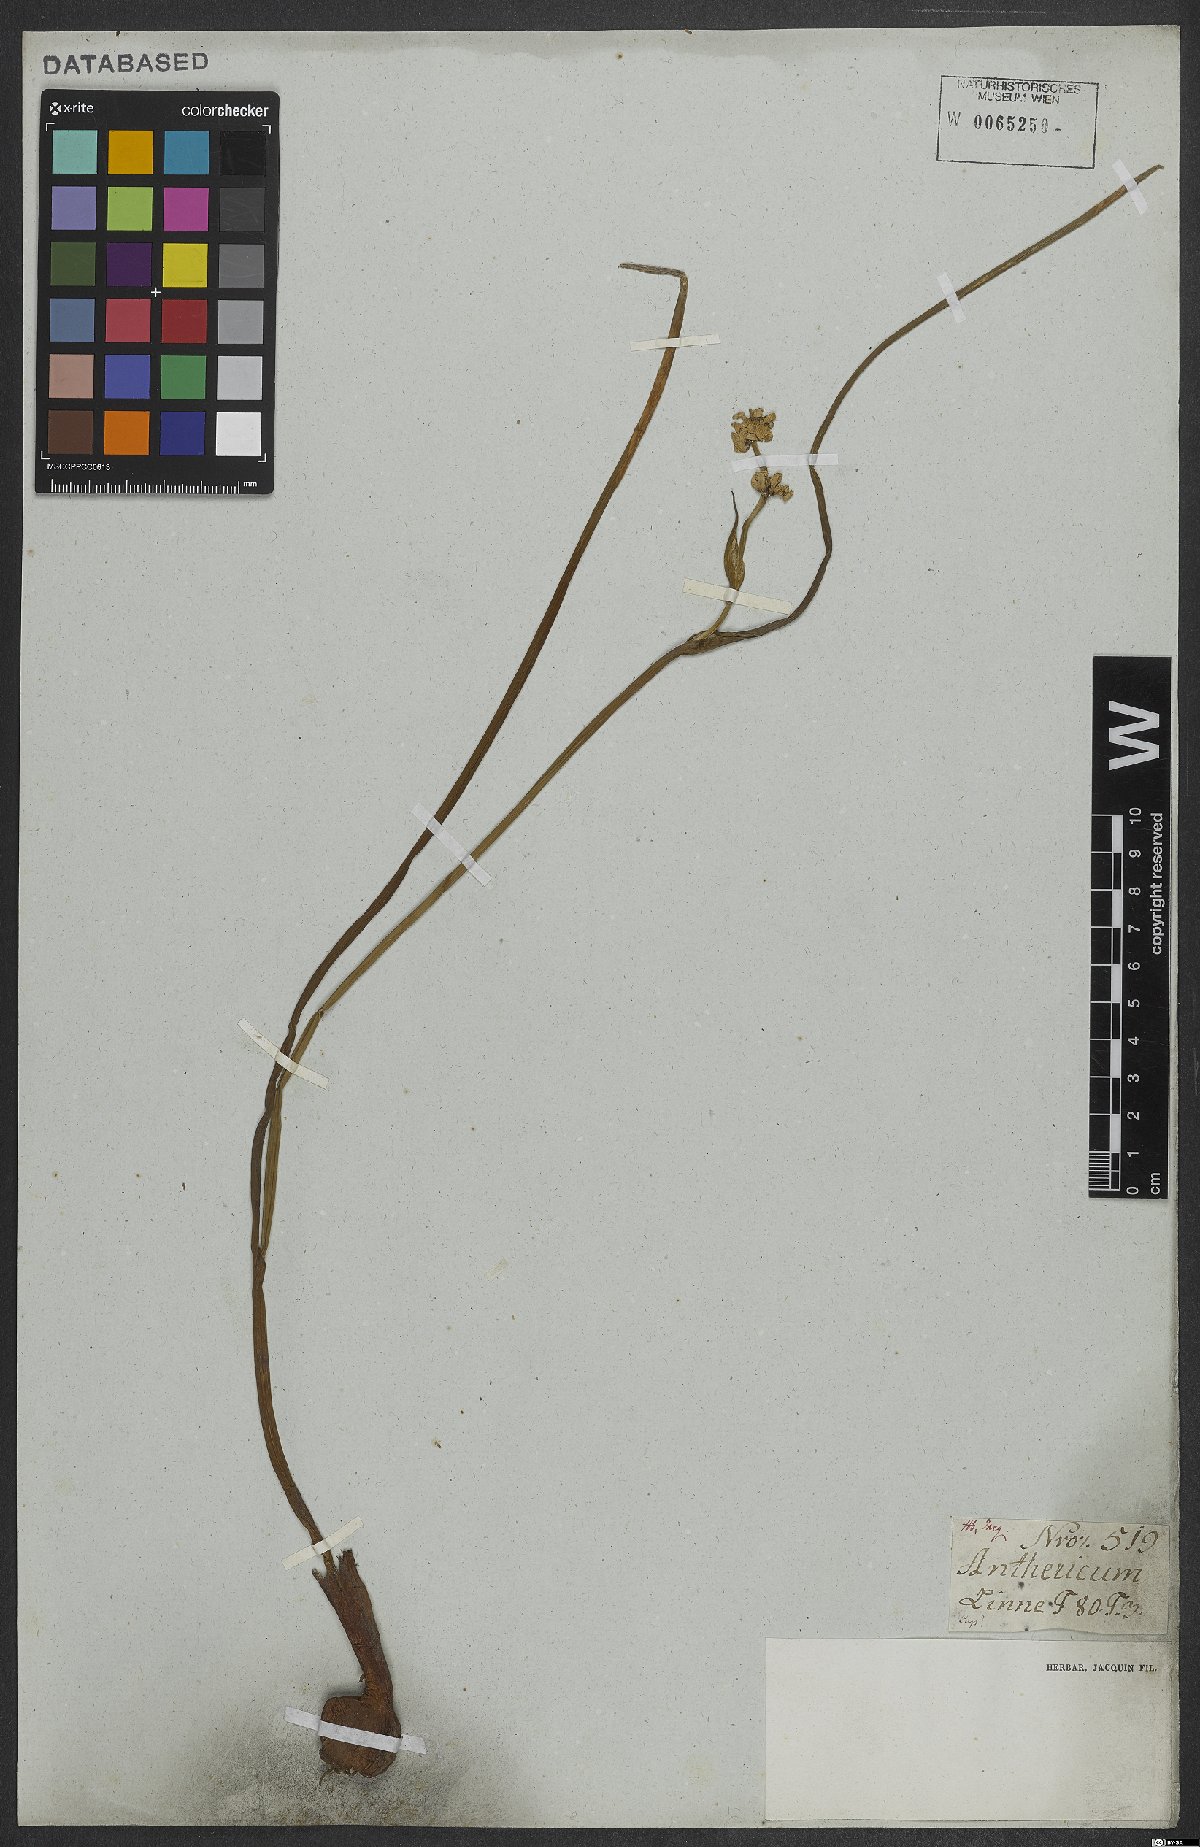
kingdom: Plantae
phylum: Tracheophyta
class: Liliopsida
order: Asparagales
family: Asparagaceae
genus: Anthericum
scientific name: Anthericum
